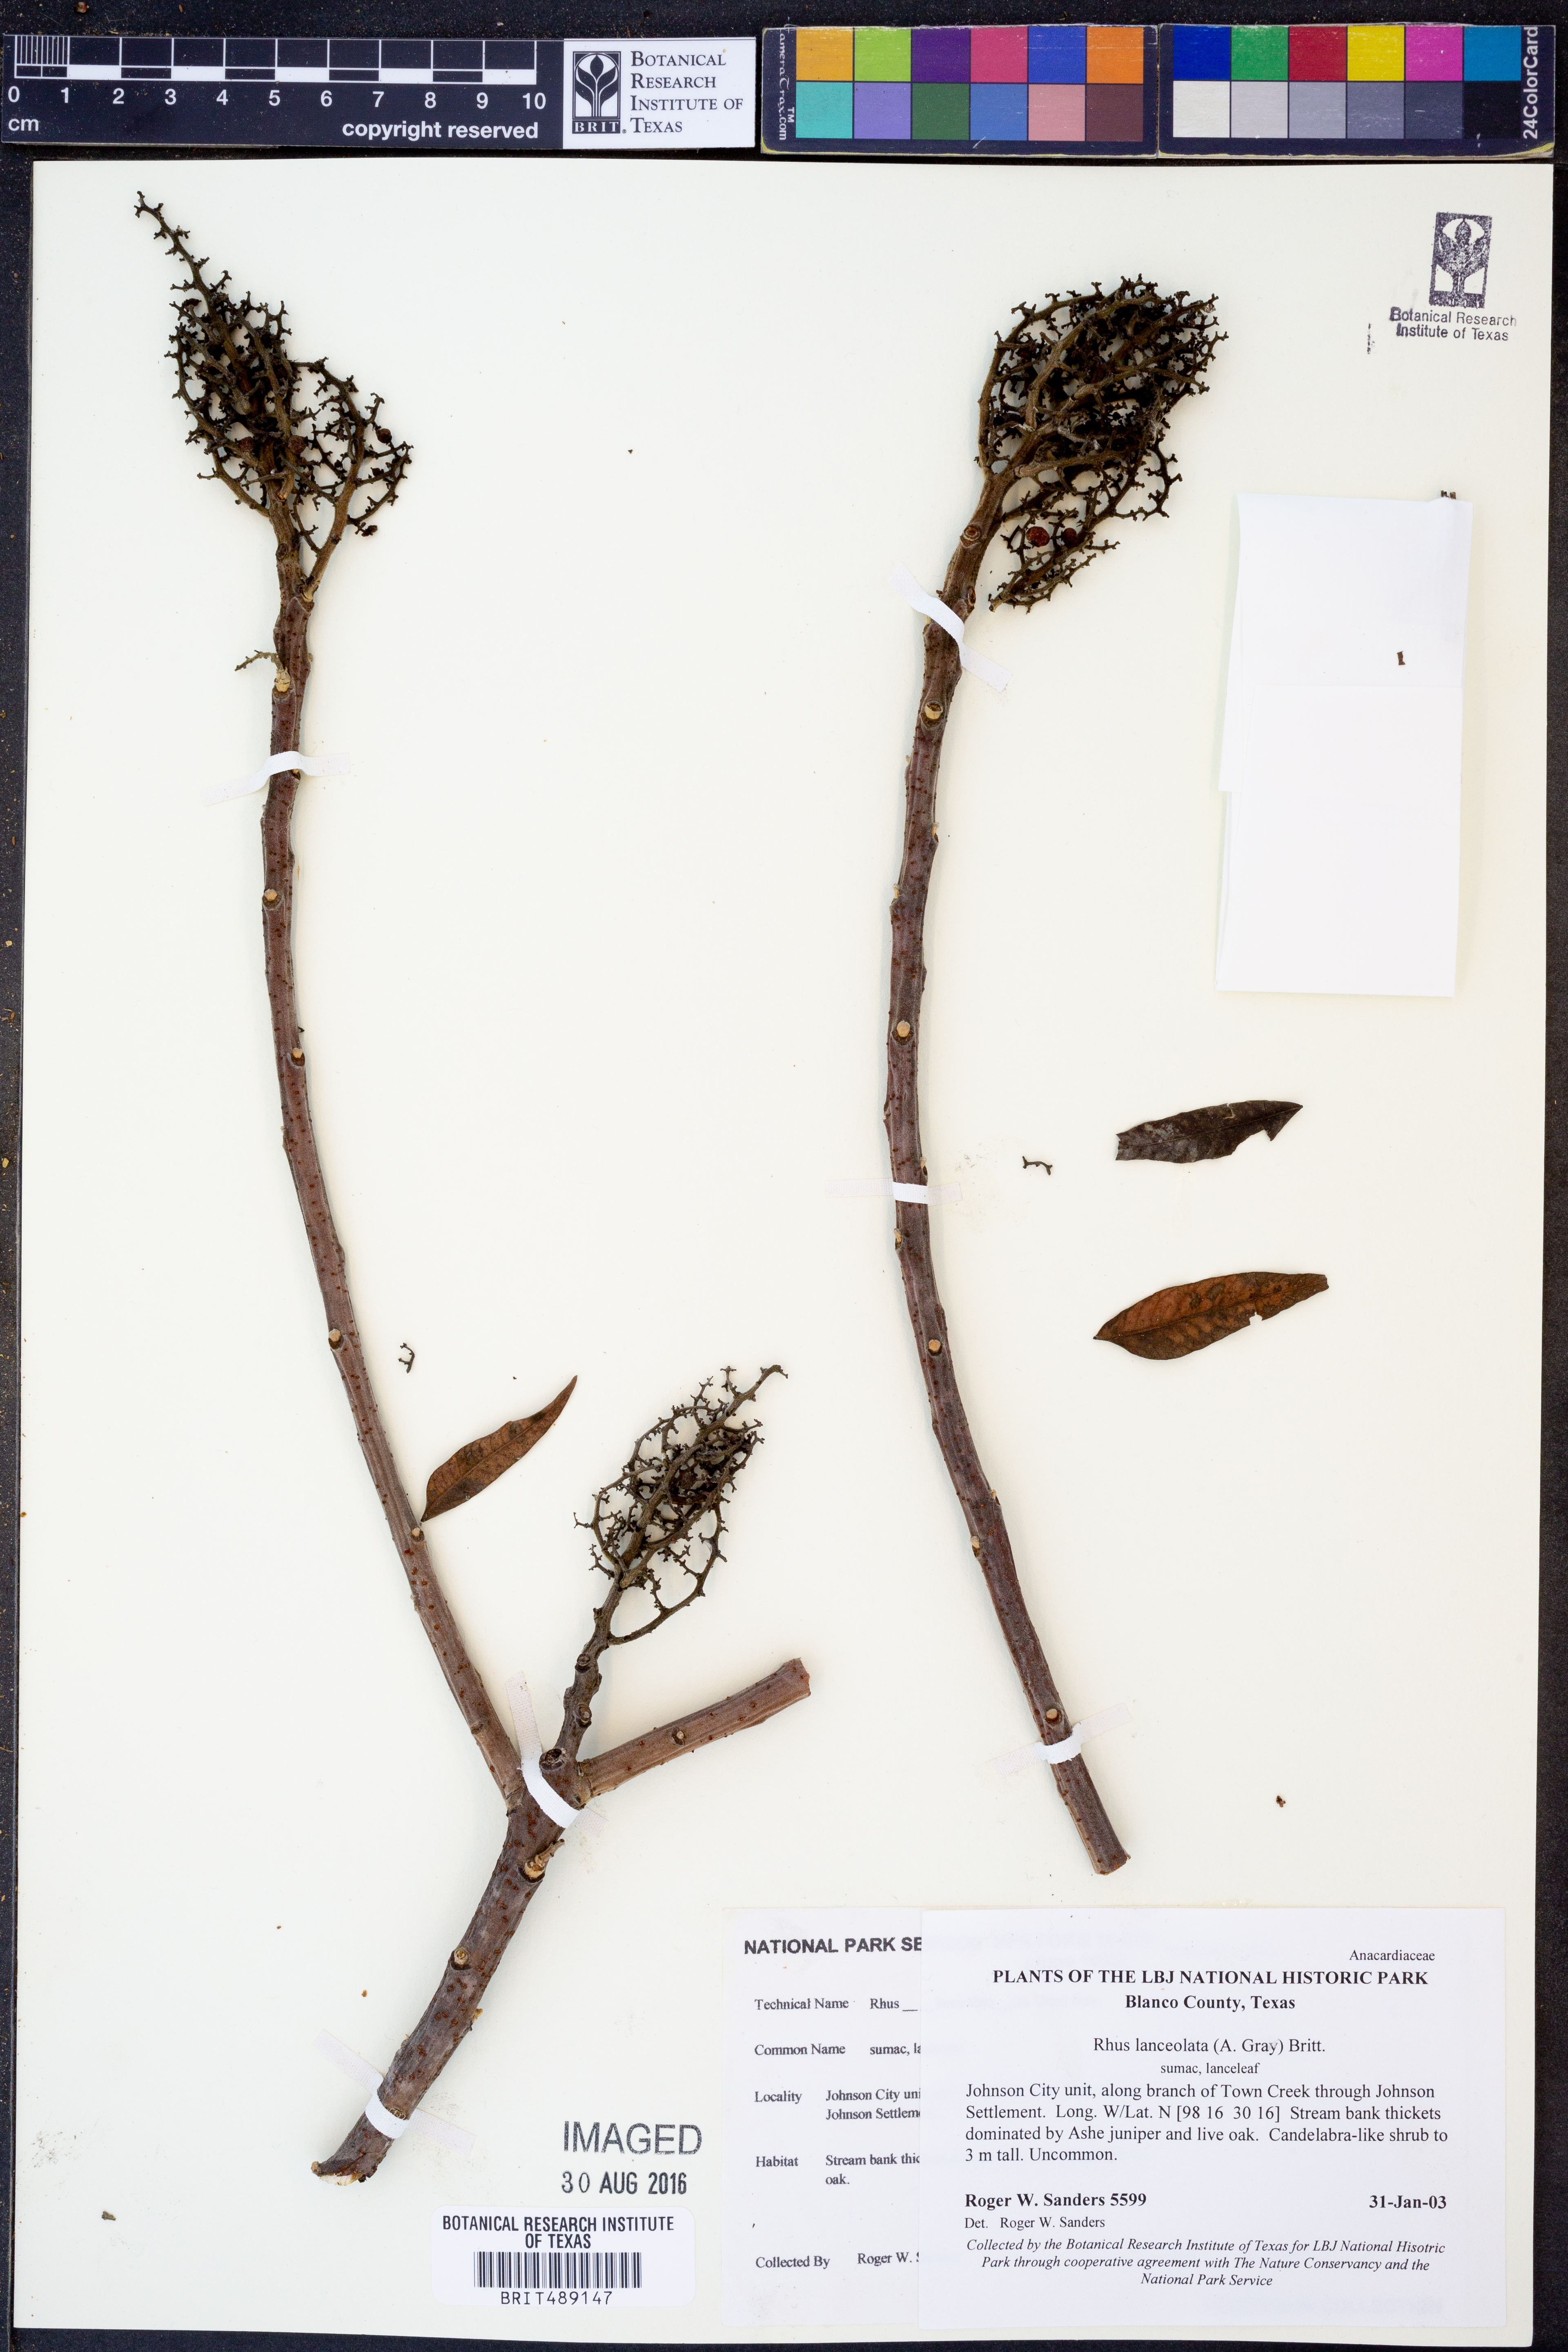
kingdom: Plantae
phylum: Tracheophyta
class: Magnoliopsida
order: Sapindales
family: Anacardiaceae
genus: Rhus
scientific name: Rhus lanceolata
